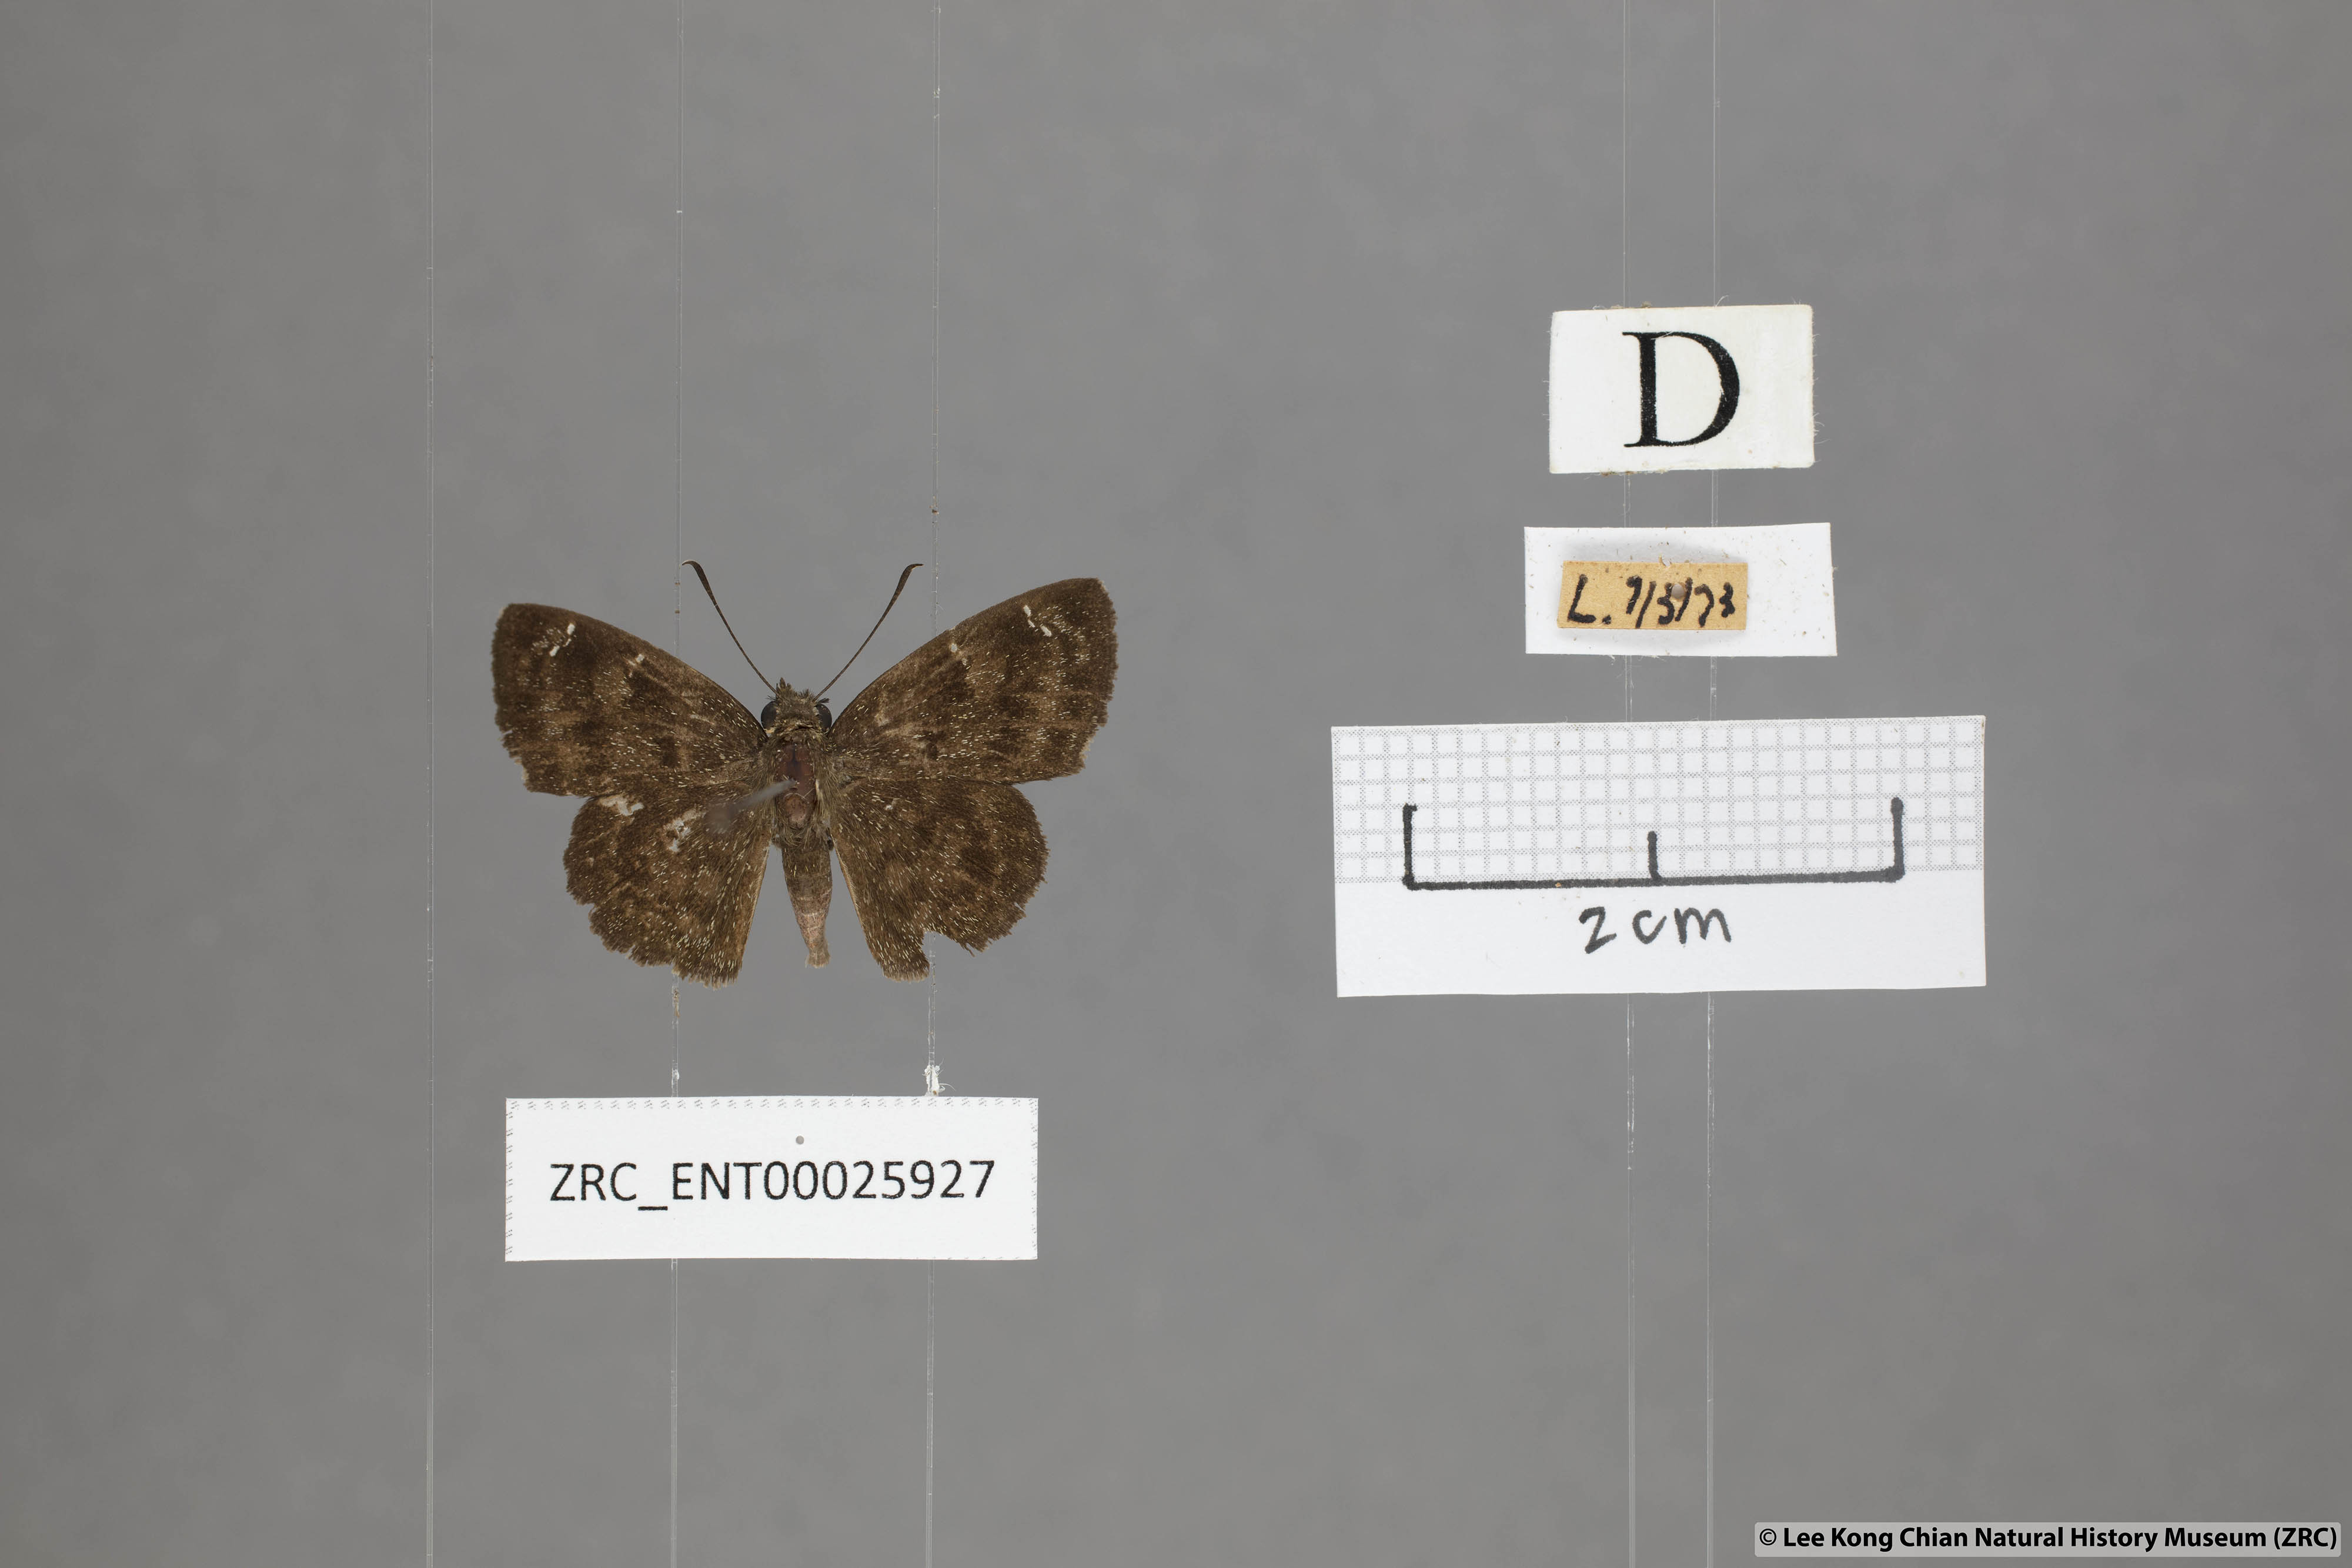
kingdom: Animalia
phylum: Arthropoda
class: Insecta
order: Lepidoptera
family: Hesperiidae
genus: Sarangesa
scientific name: Sarangesa dasahara
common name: Common small flat
